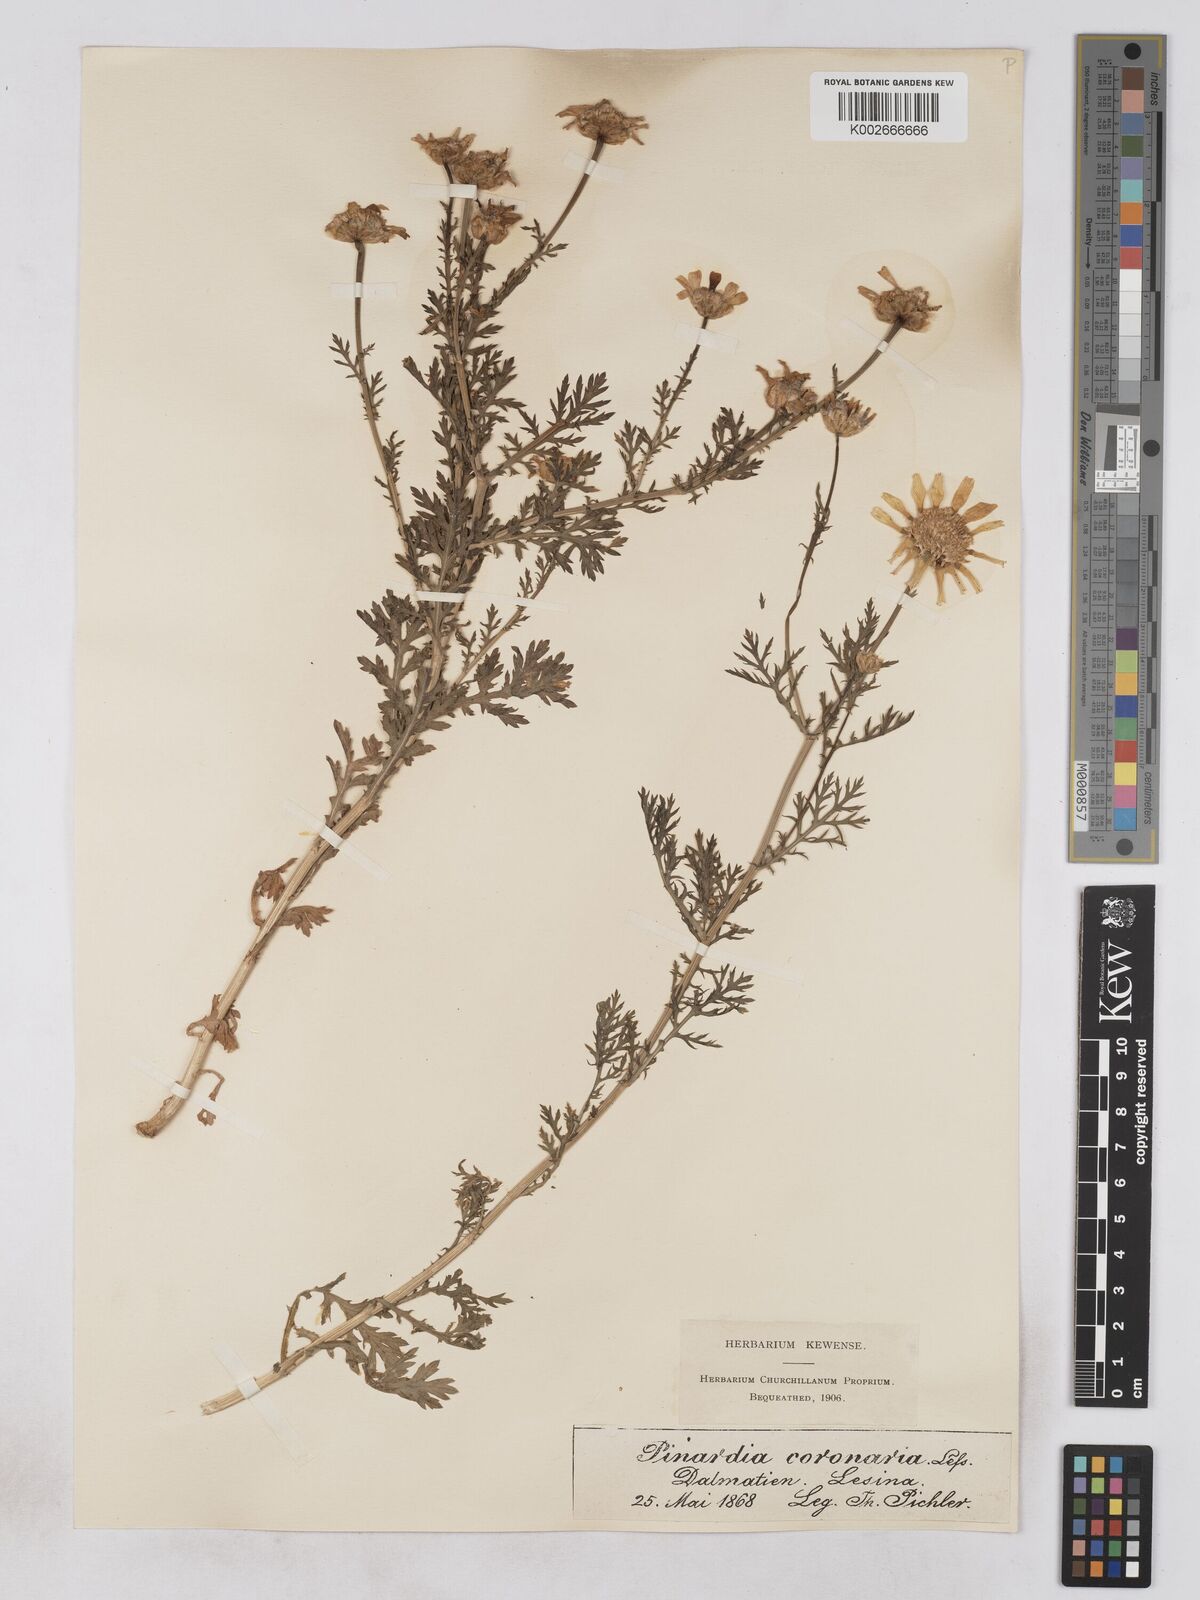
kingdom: Plantae
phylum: Tracheophyta
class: Magnoliopsida
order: Asterales
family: Asteraceae
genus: Glebionis
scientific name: Glebionis coronaria
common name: Crowndaisy
